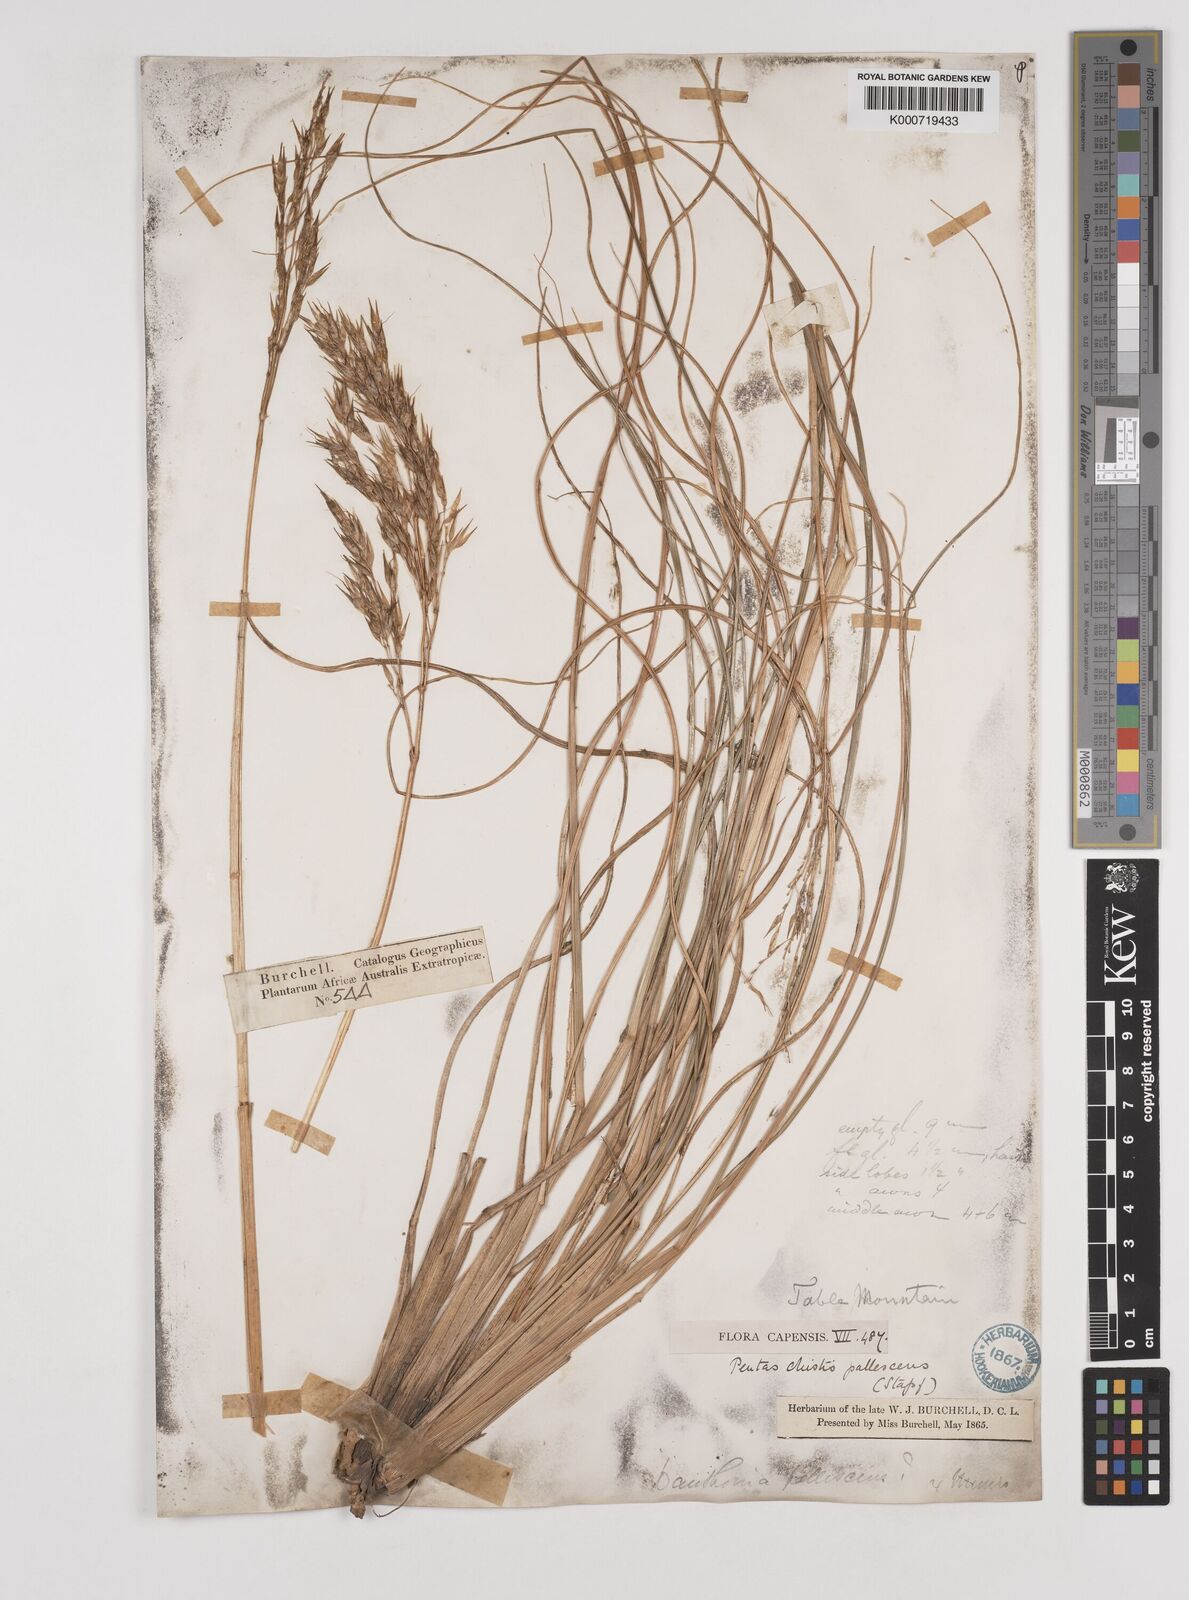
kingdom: Plantae
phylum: Tracheophyta
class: Liliopsida
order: Poales
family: Poaceae
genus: Pentameris
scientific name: Pentameris pallescens
